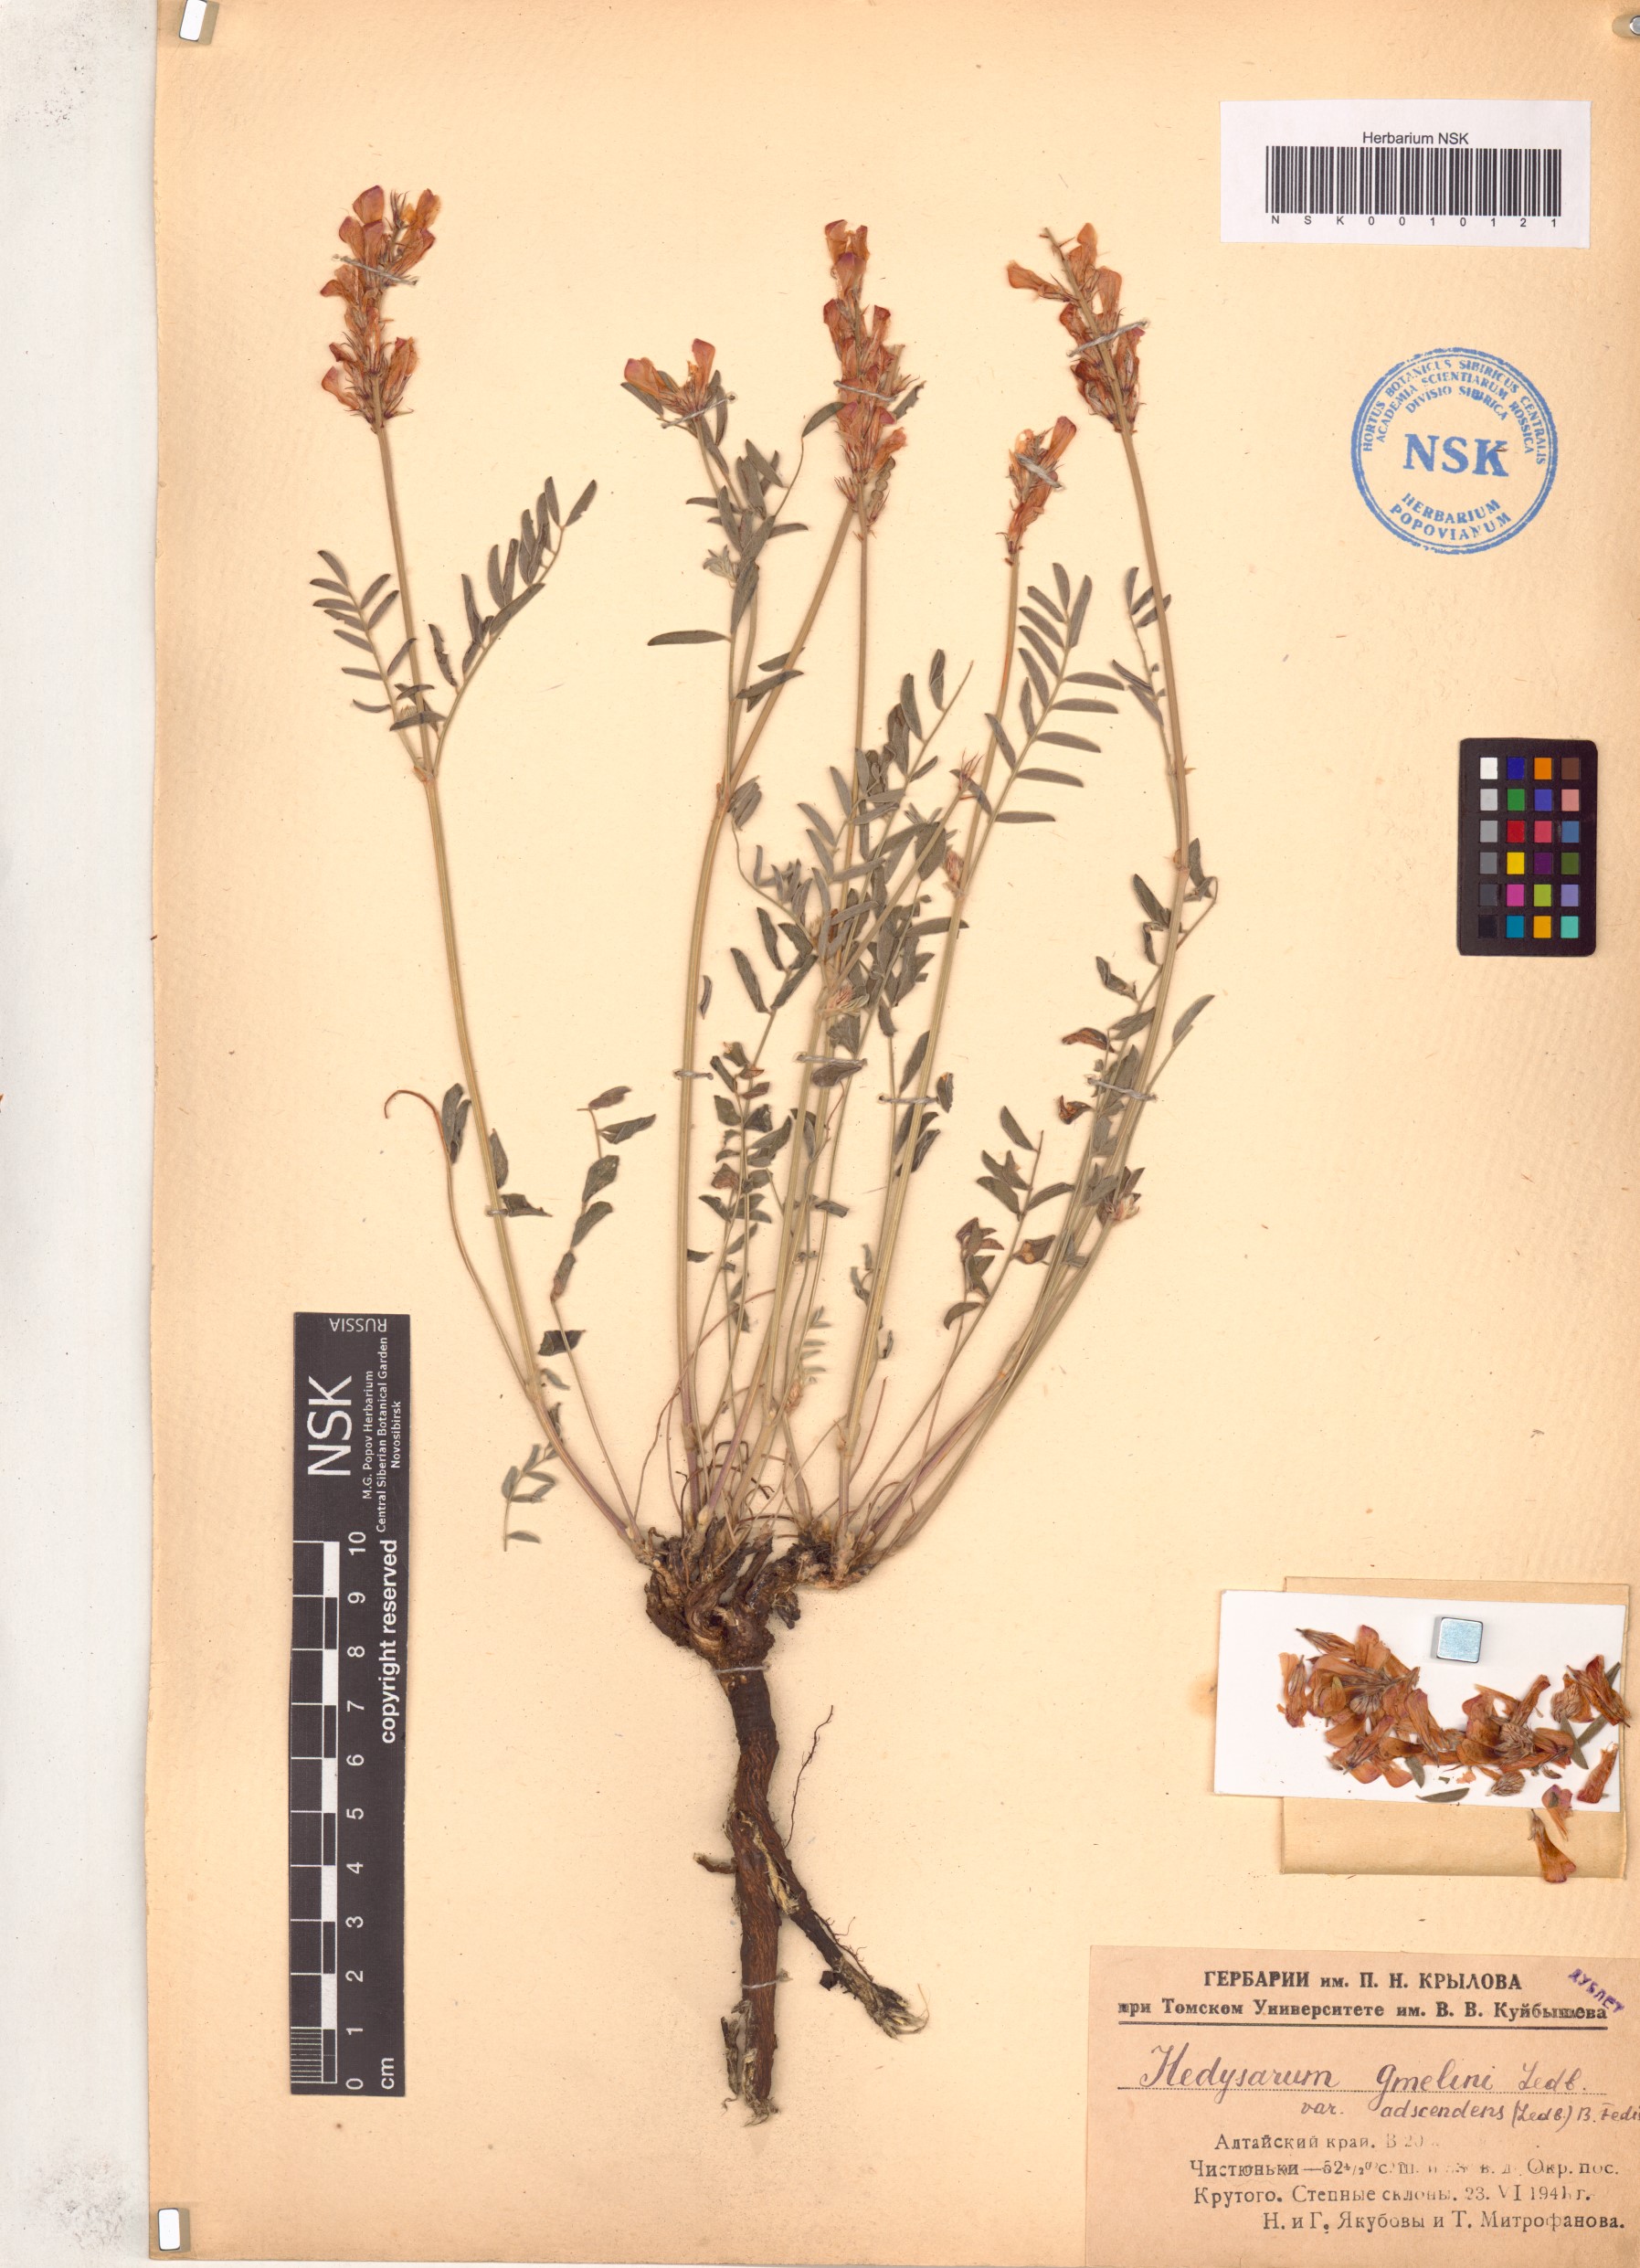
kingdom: Plantae
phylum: Tracheophyta
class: Magnoliopsida
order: Fabales
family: Fabaceae
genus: Hedysarum
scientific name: Hedysarum gmelinii
